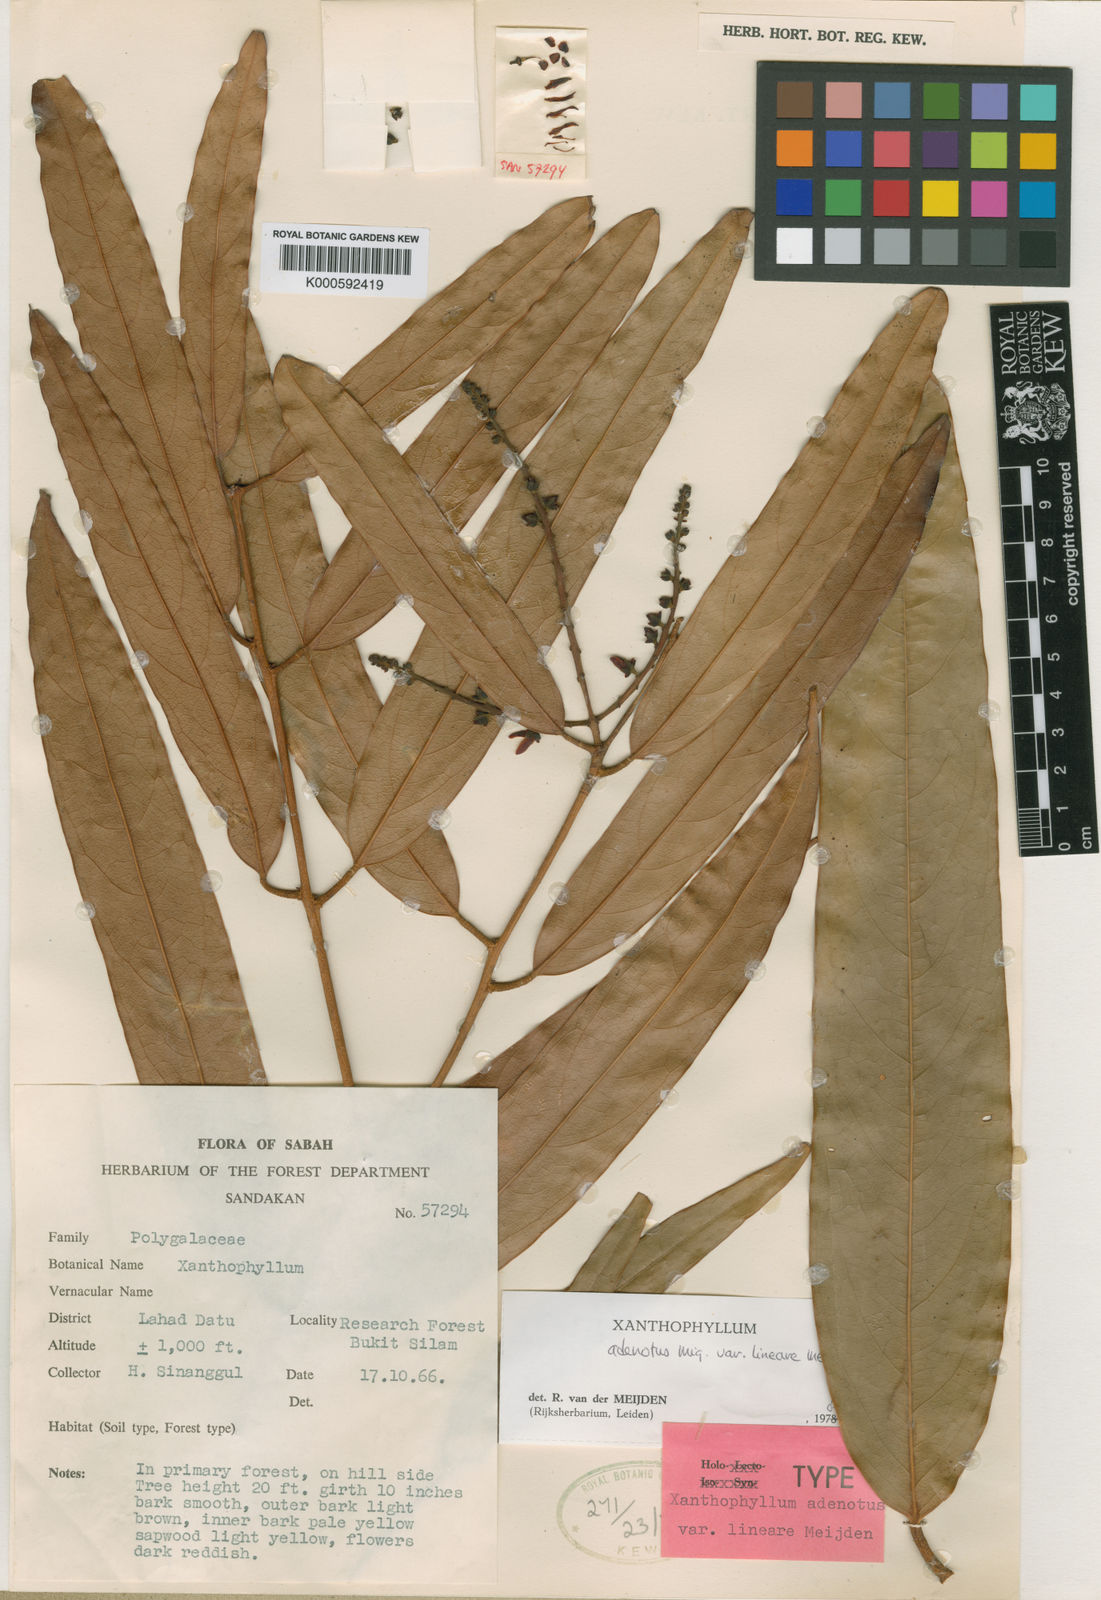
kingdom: Plantae
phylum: Tracheophyta
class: Magnoliopsida
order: Fabales
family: Polygalaceae
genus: Xanthophyllum
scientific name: Xanthophyllum lineare
